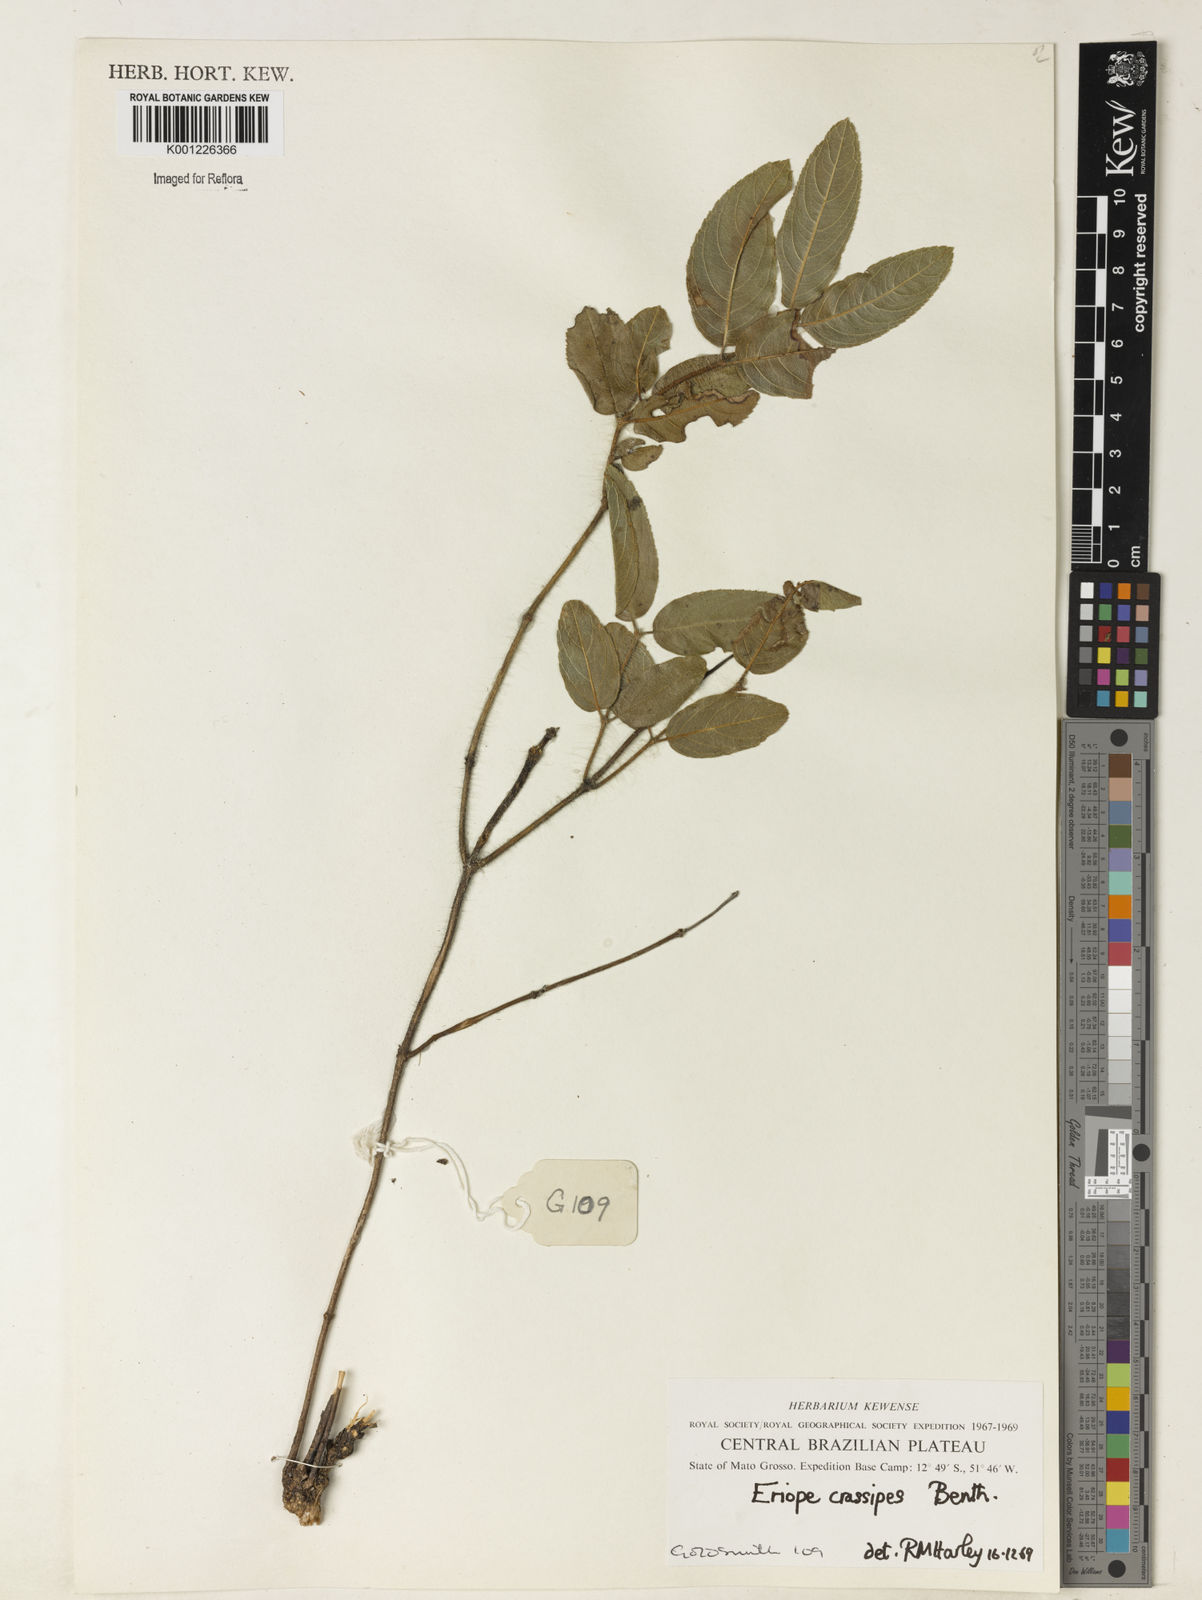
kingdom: Plantae
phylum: Tracheophyta
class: Magnoliopsida
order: Lamiales
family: Lamiaceae
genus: Eriope
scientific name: Eriope crassipes
